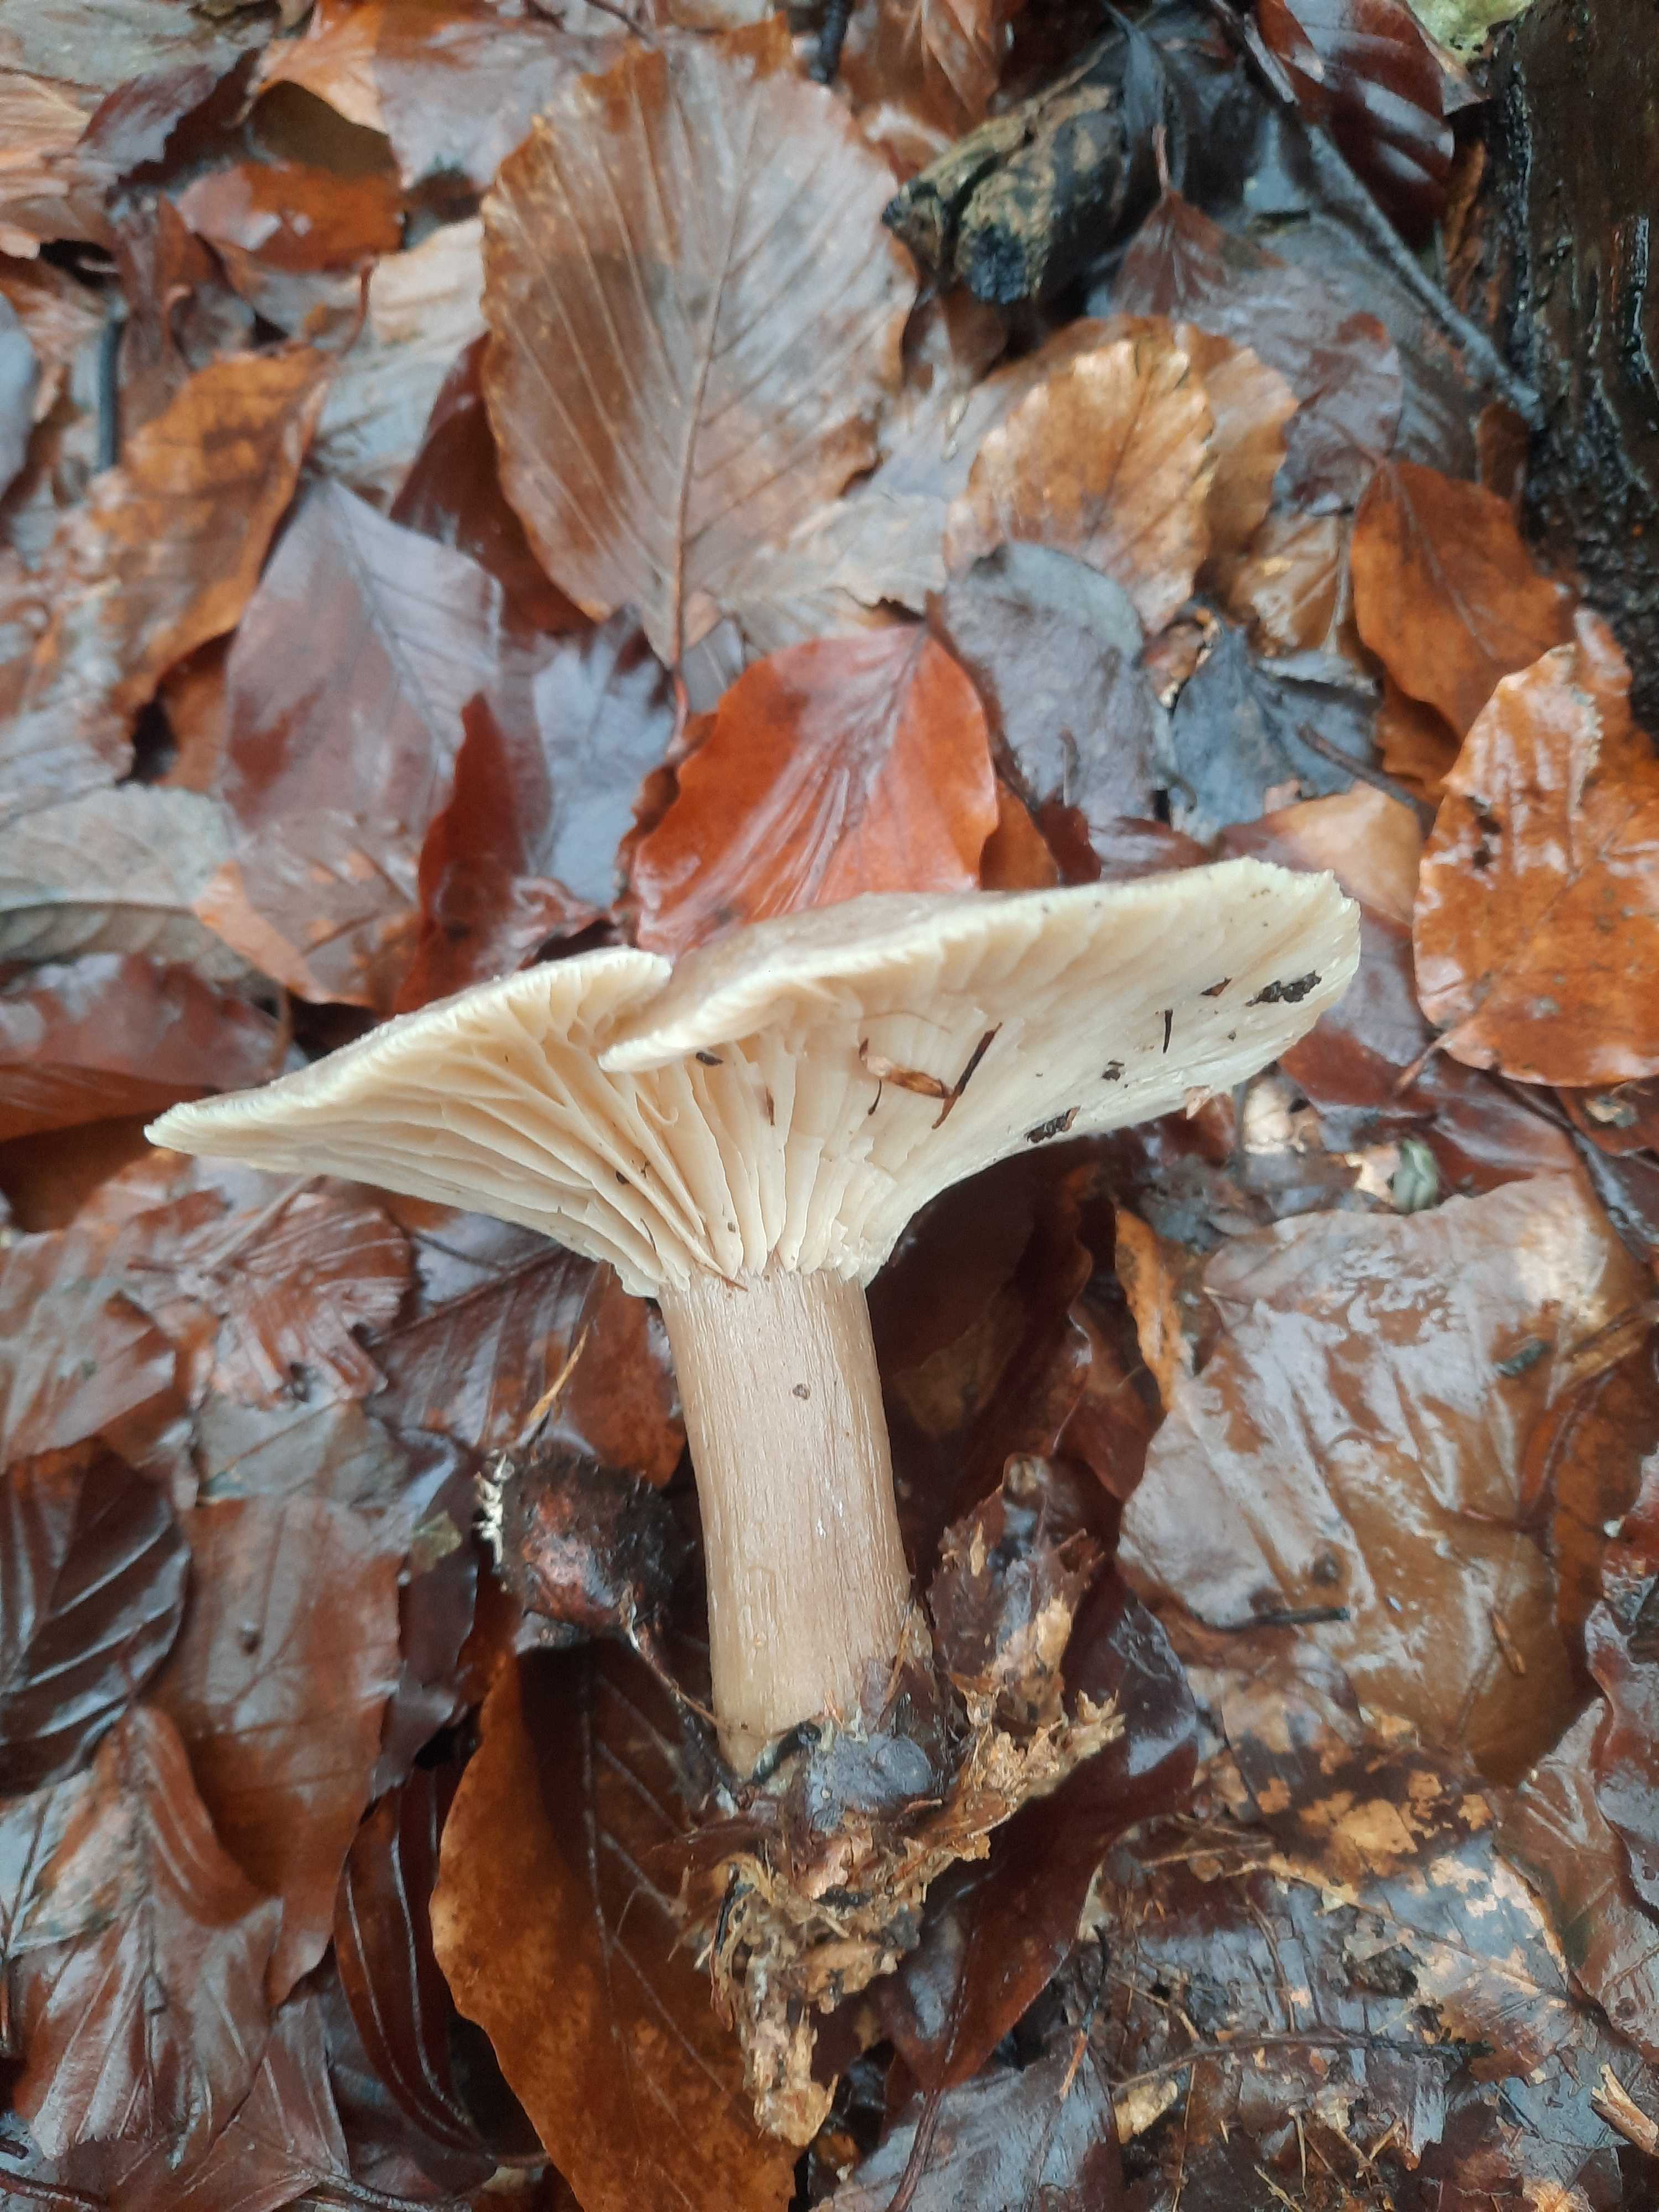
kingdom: Fungi
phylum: Basidiomycota
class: Agaricomycetes
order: Agaricales
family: Tricholomataceae
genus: Clitocybe
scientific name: Clitocybe nebularis
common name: tåge-tragthat
